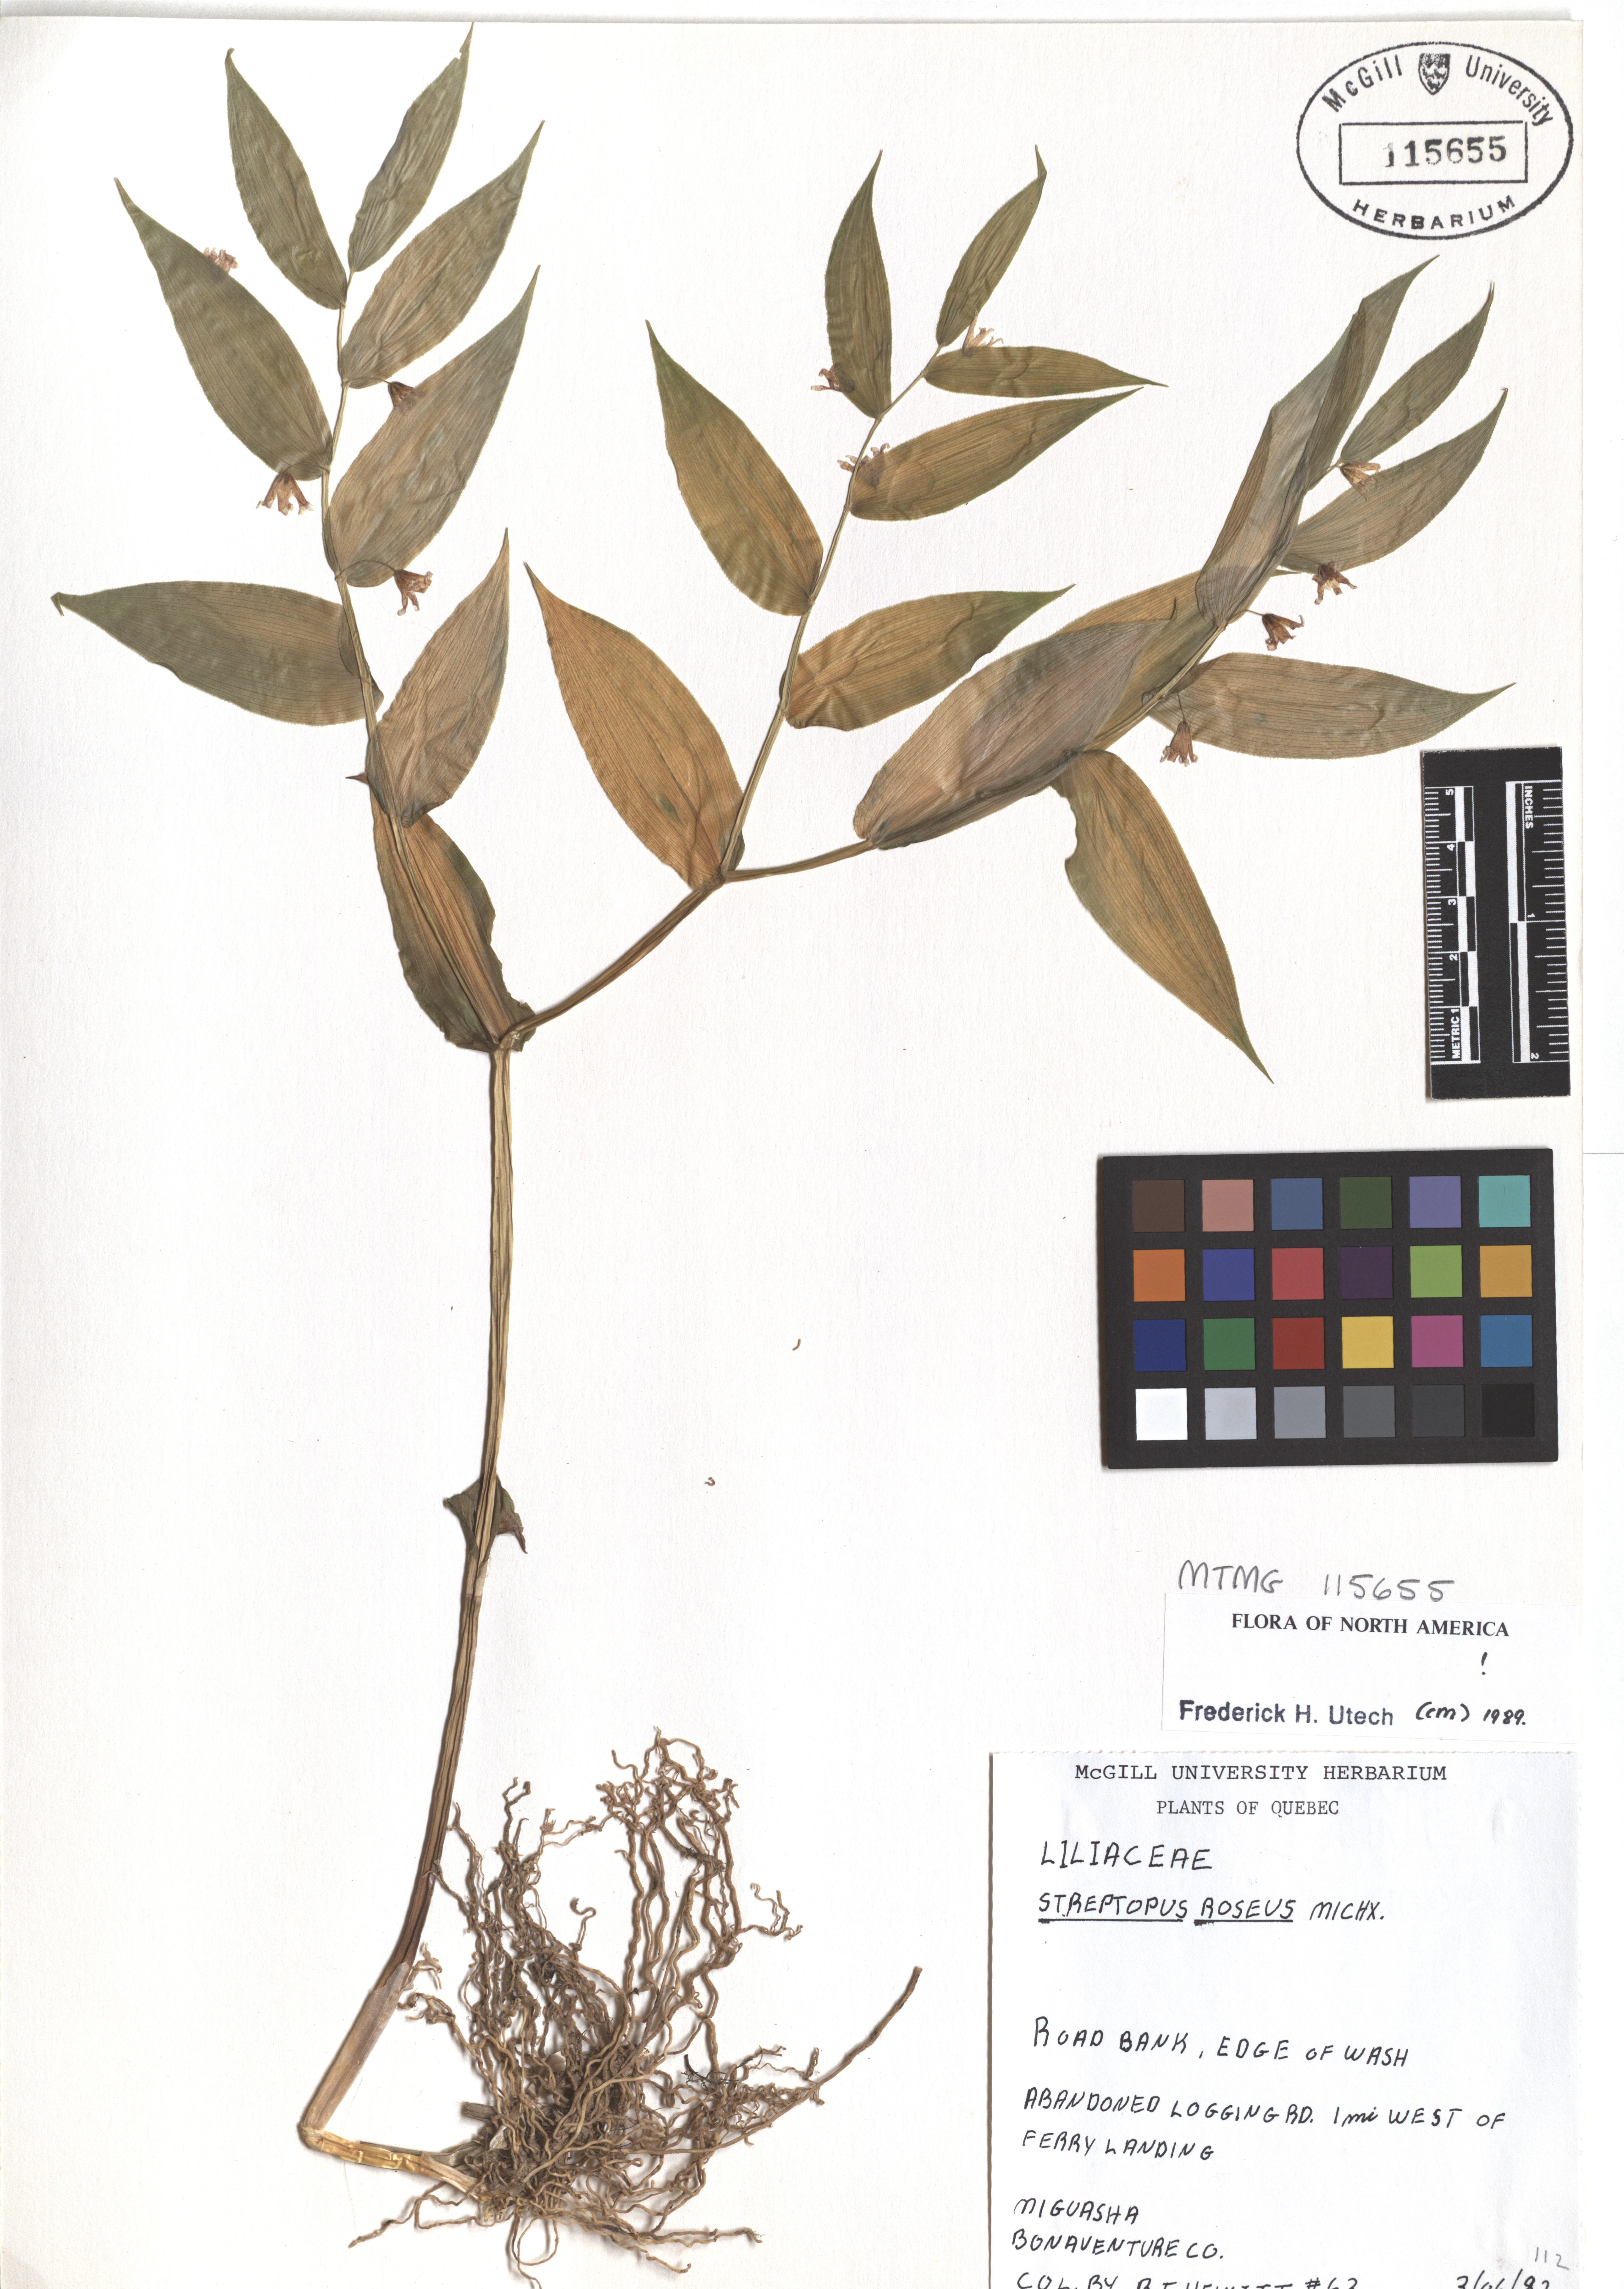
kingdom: Plantae
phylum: Tracheophyta
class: Liliopsida
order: Liliales
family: Liliaceae
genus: Streptopus
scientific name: Streptopus lanceolatus
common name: Rose mandarin
